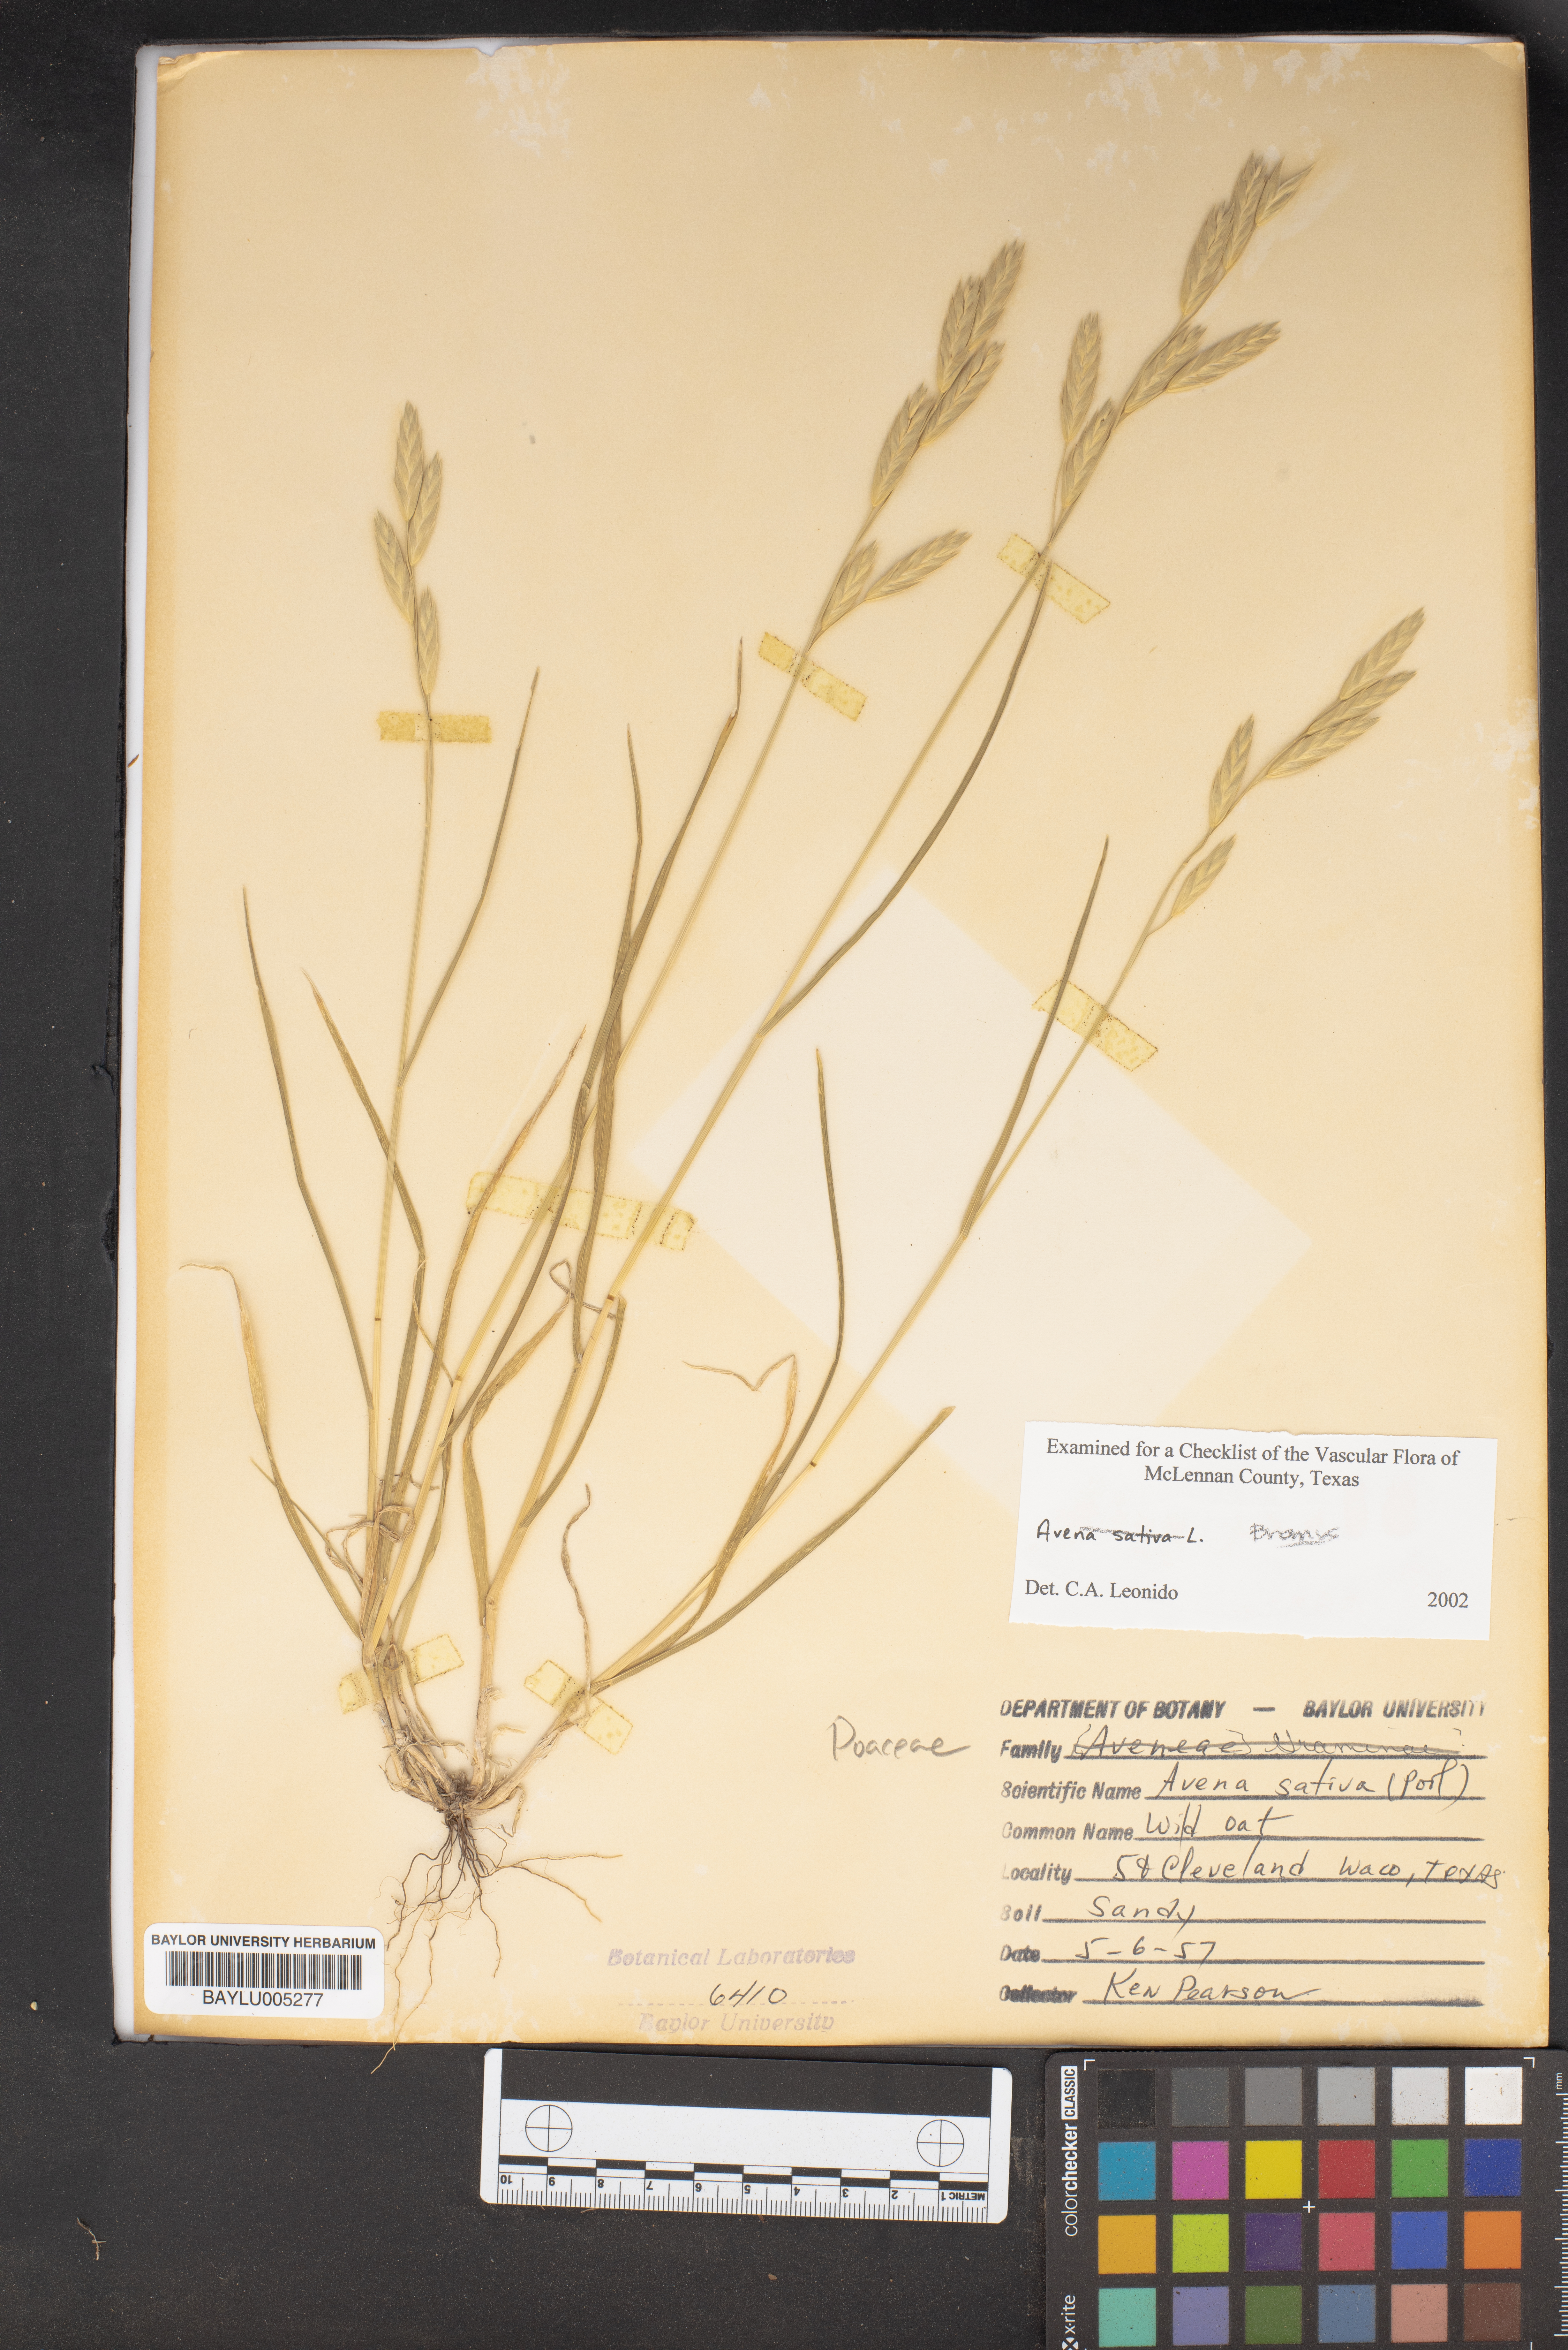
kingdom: Plantae
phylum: Tracheophyta
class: Liliopsida
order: Poales
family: Poaceae
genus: Avena
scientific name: Avena sativa
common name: Oat
